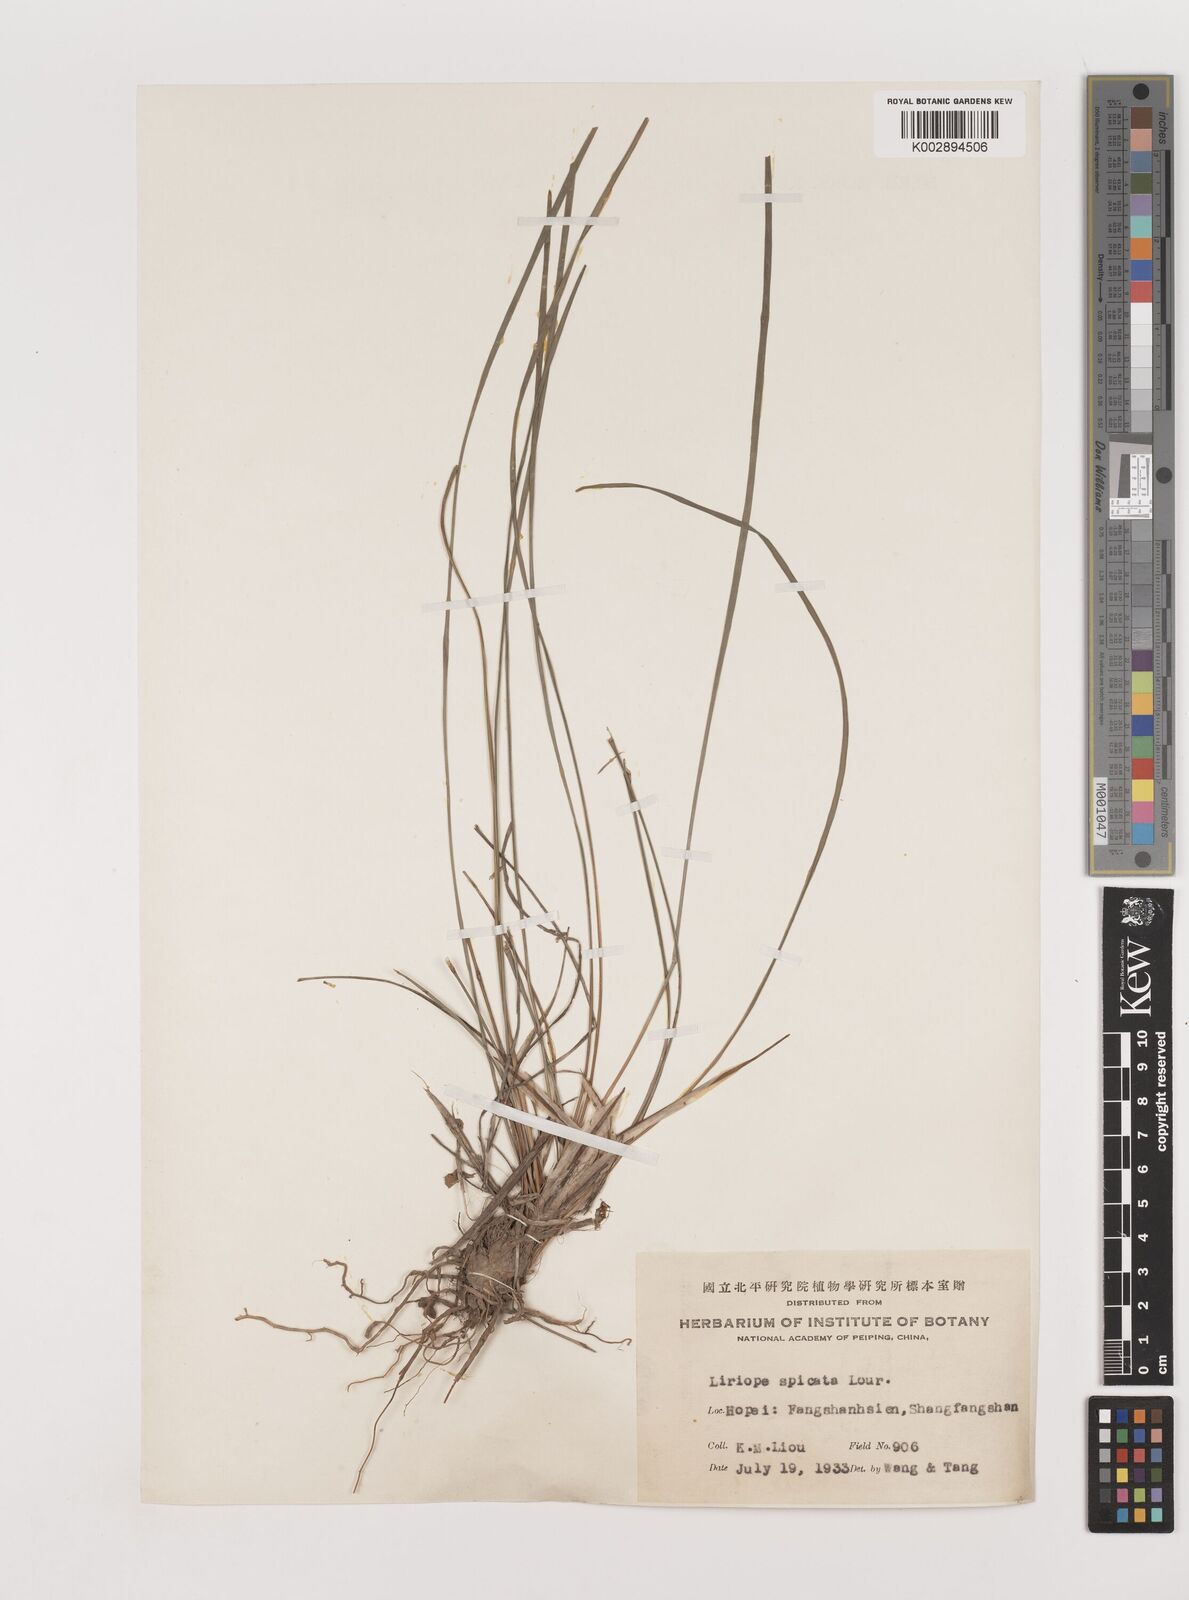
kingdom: Plantae
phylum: Tracheophyta
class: Liliopsida
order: Asparagales
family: Asparagaceae
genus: Liriope
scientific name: Liriope spicata
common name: Creeping liriope
